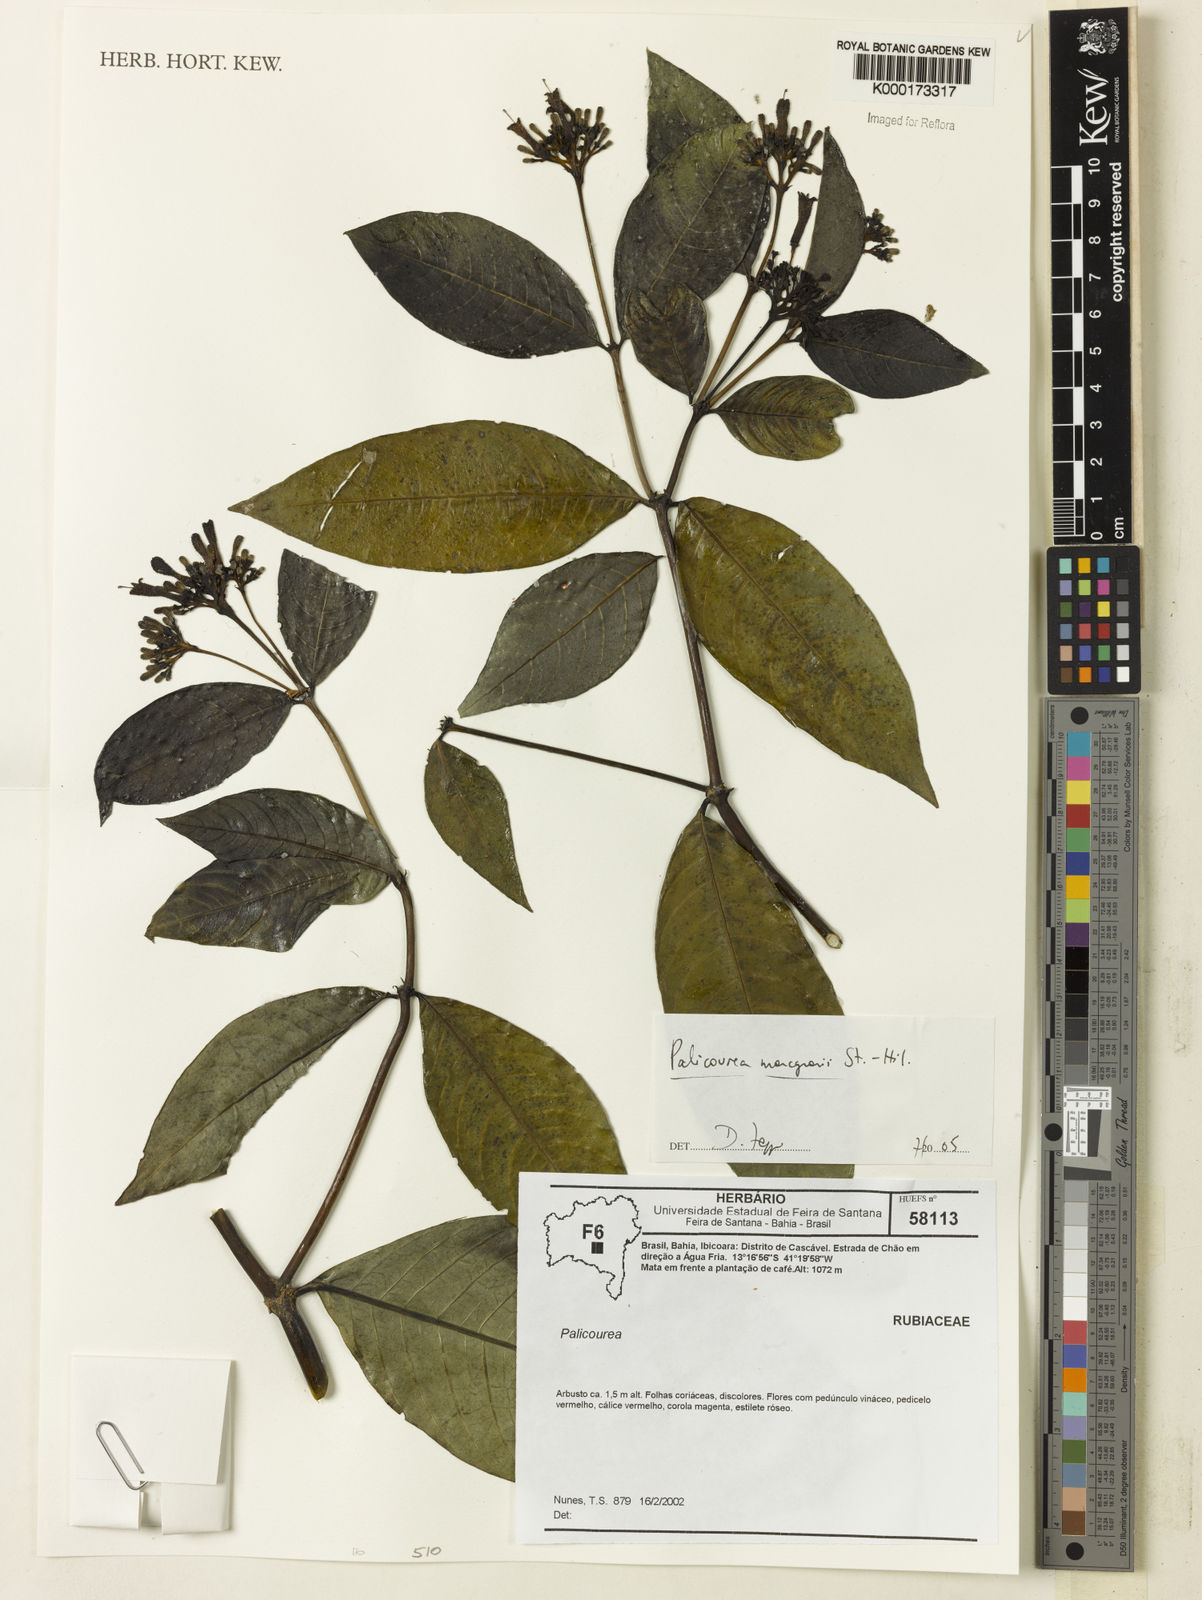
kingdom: Plantae
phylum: Tracheophyta
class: Magnoliopsida
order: Gentianales
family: Rubiaceae
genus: Palicourea
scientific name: Palicourea marcgravii
